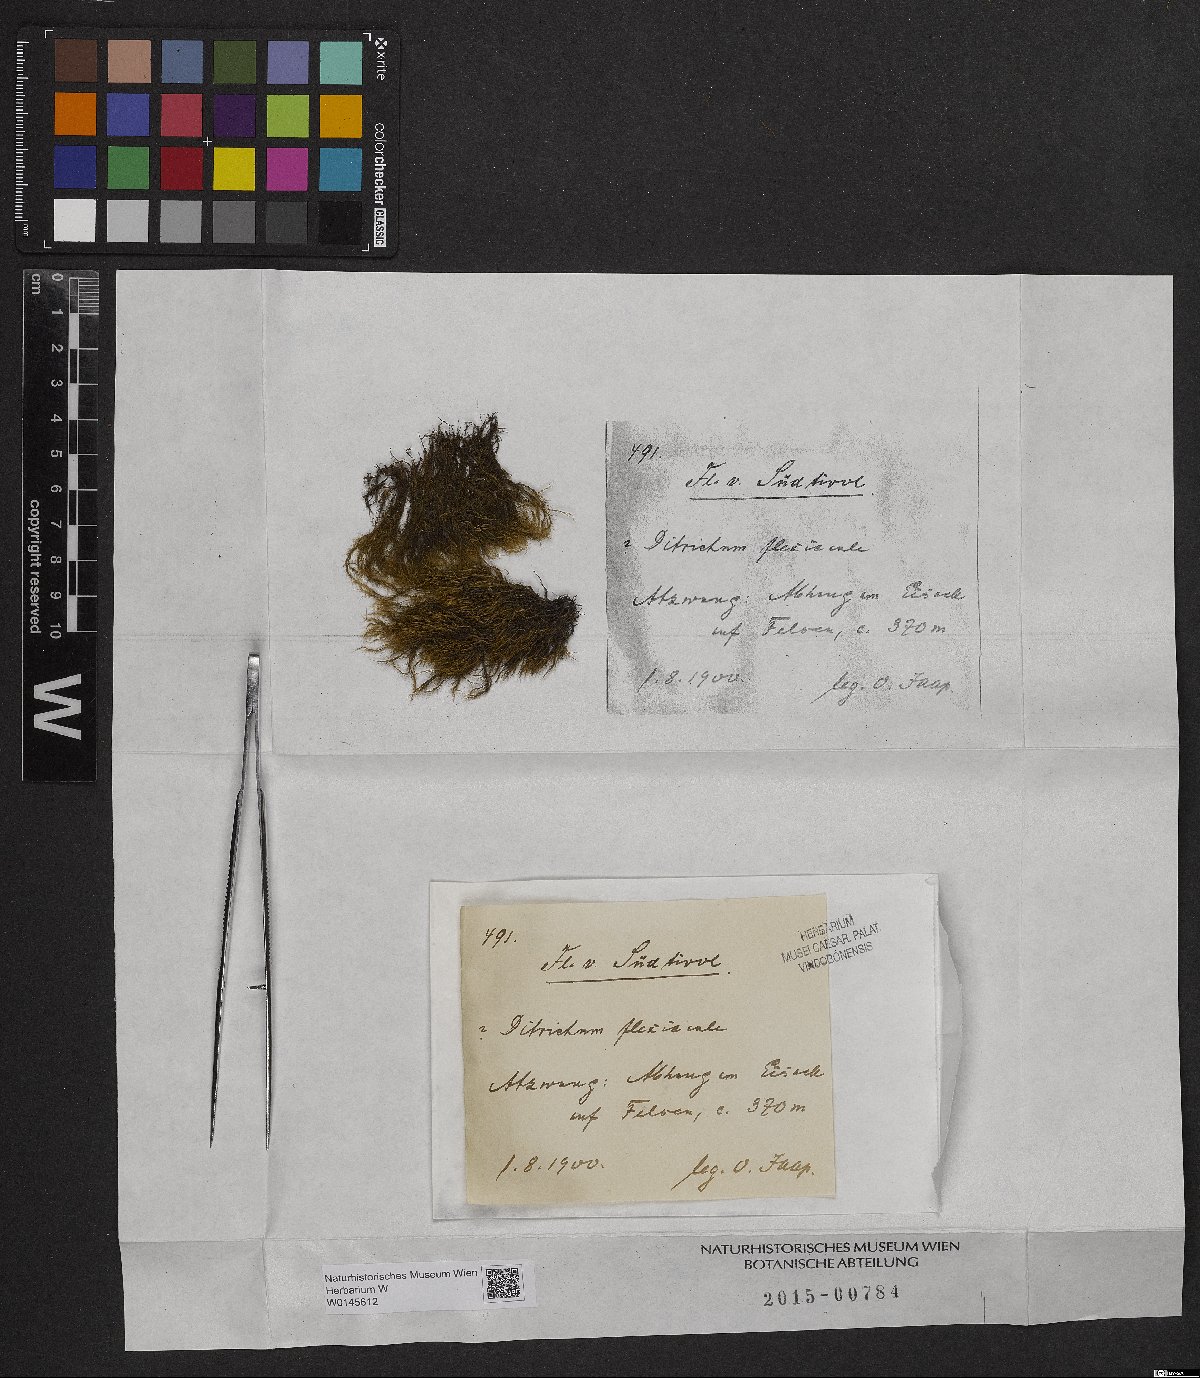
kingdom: Plantae
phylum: Bryophyta
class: Bryopsida
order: Scouleriales
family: Flexitrichaceae
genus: Flexitrichum
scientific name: Flexitrichum flexicaule
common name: Bendy ditrichum
